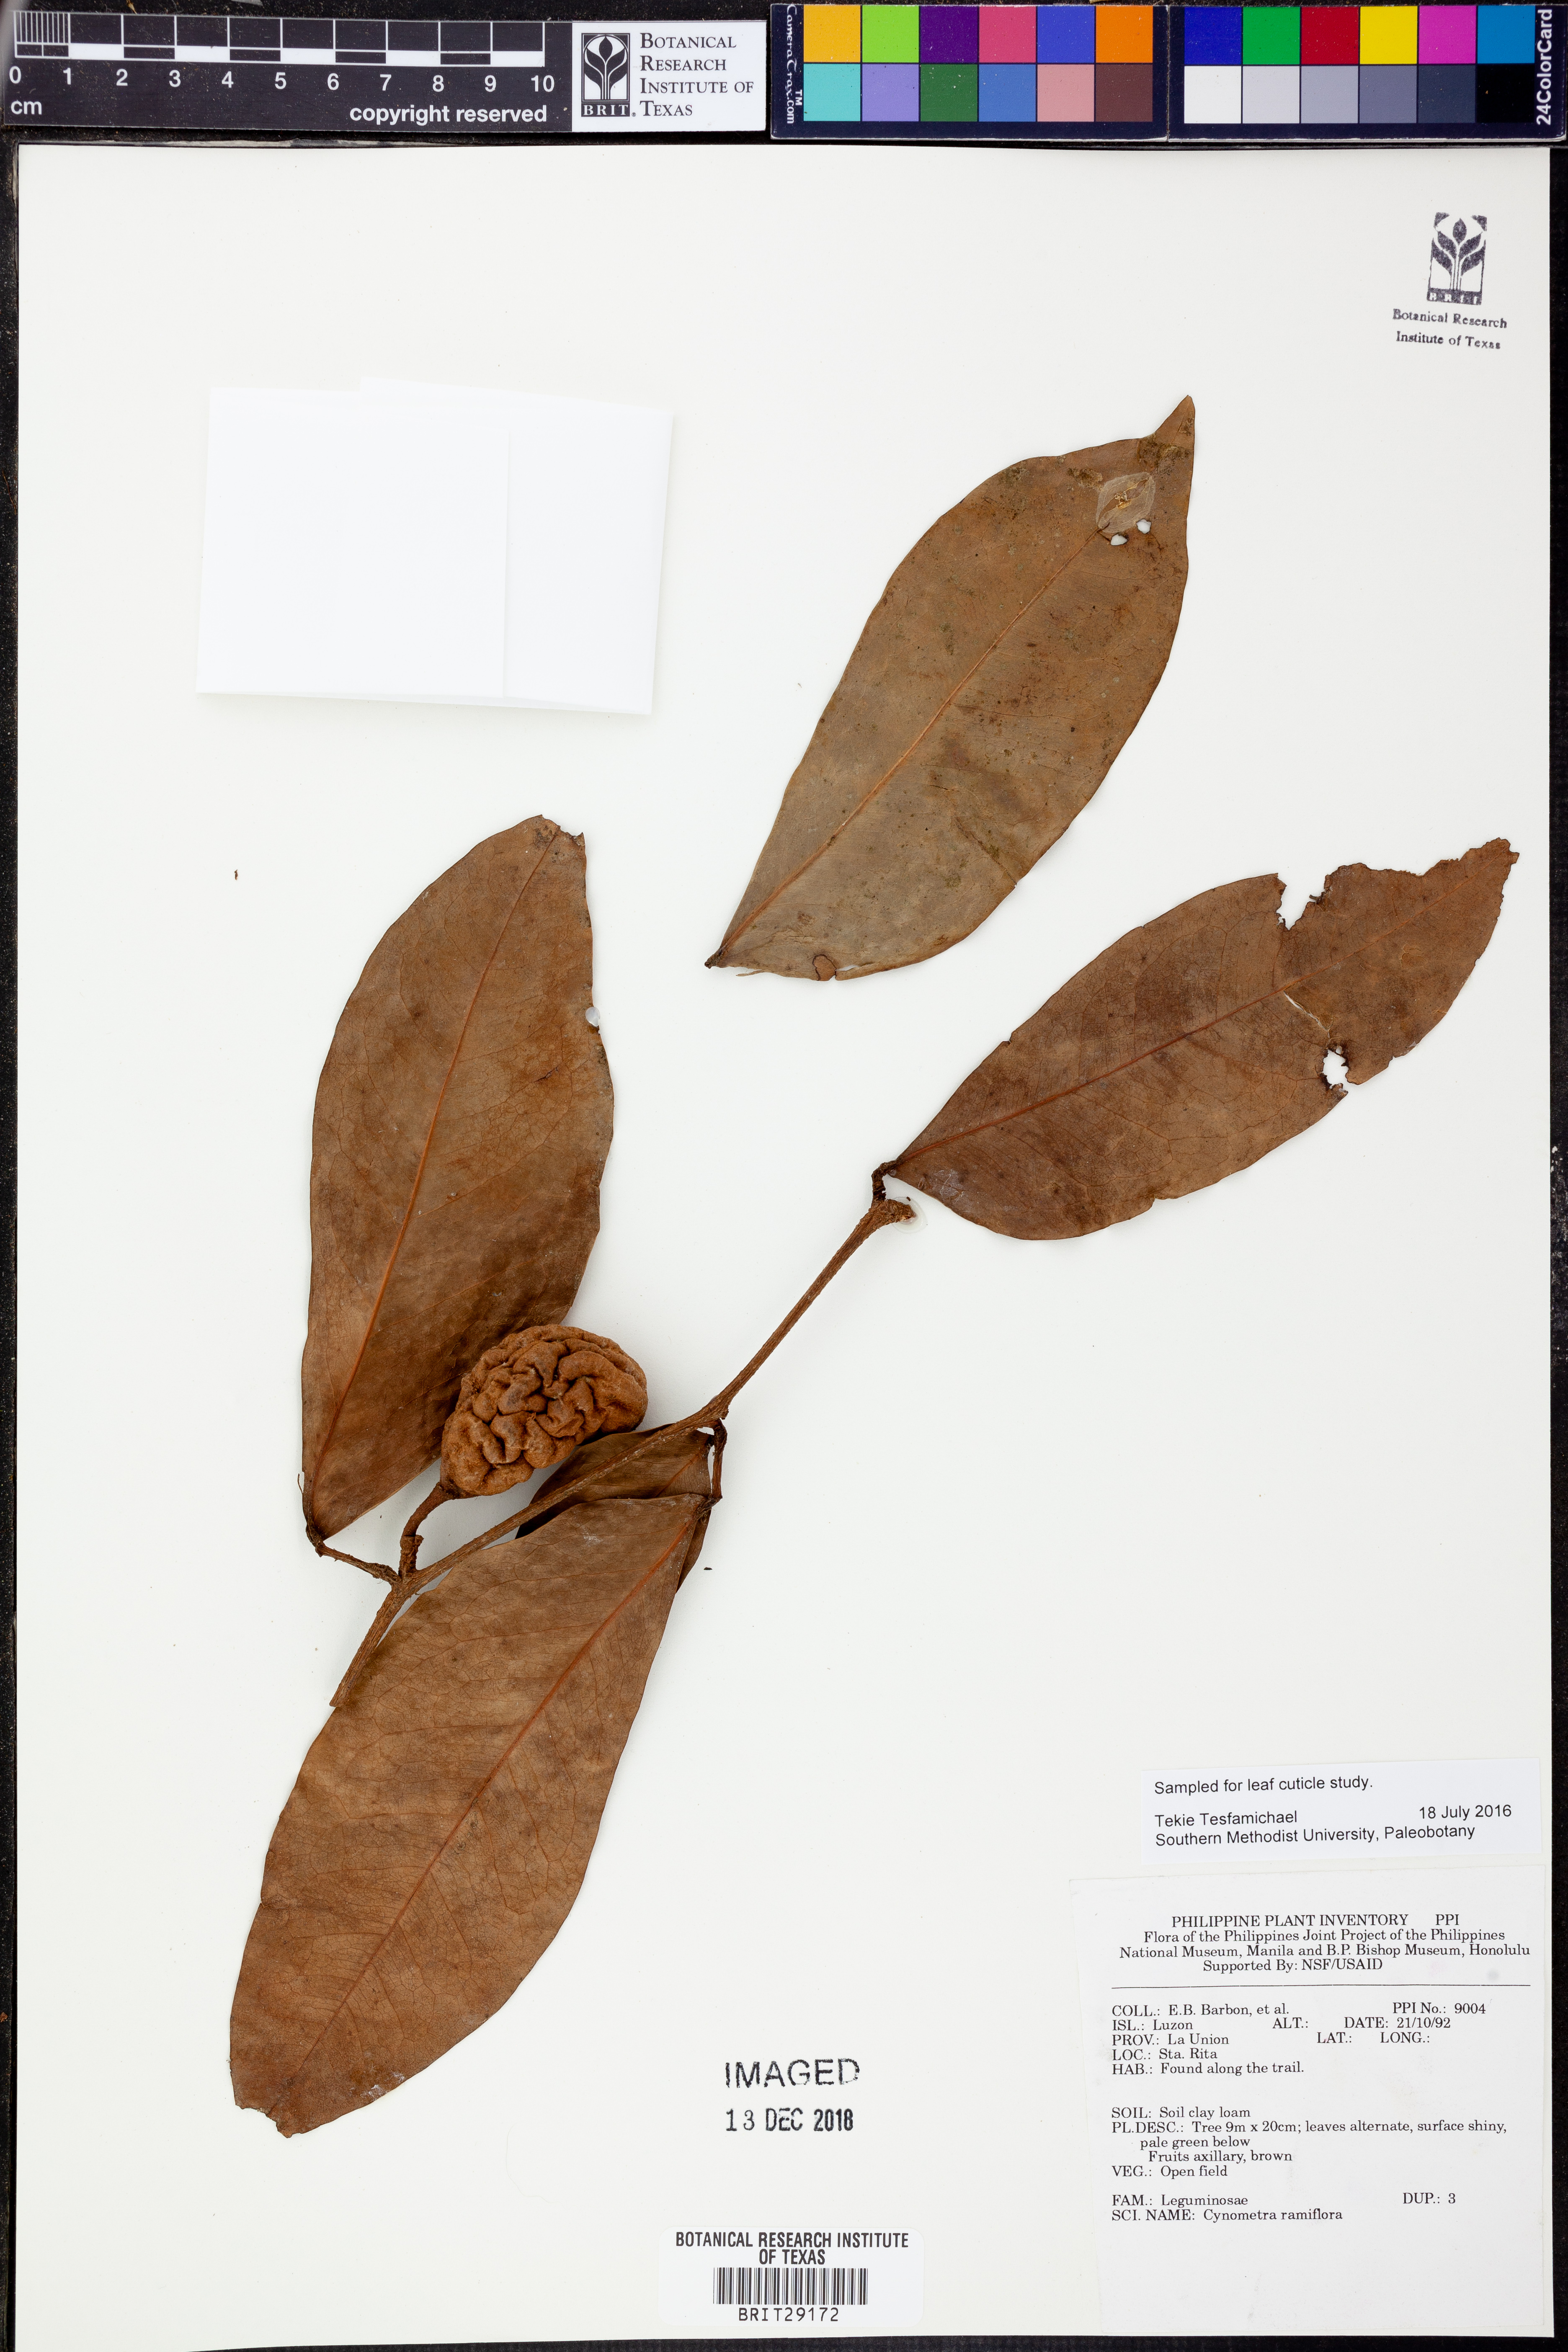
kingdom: Plantae
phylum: Tracheophyta
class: Magnoliopsida
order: Fabales
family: Fabaceae
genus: Cynometra
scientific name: Cynometra ramiflora
